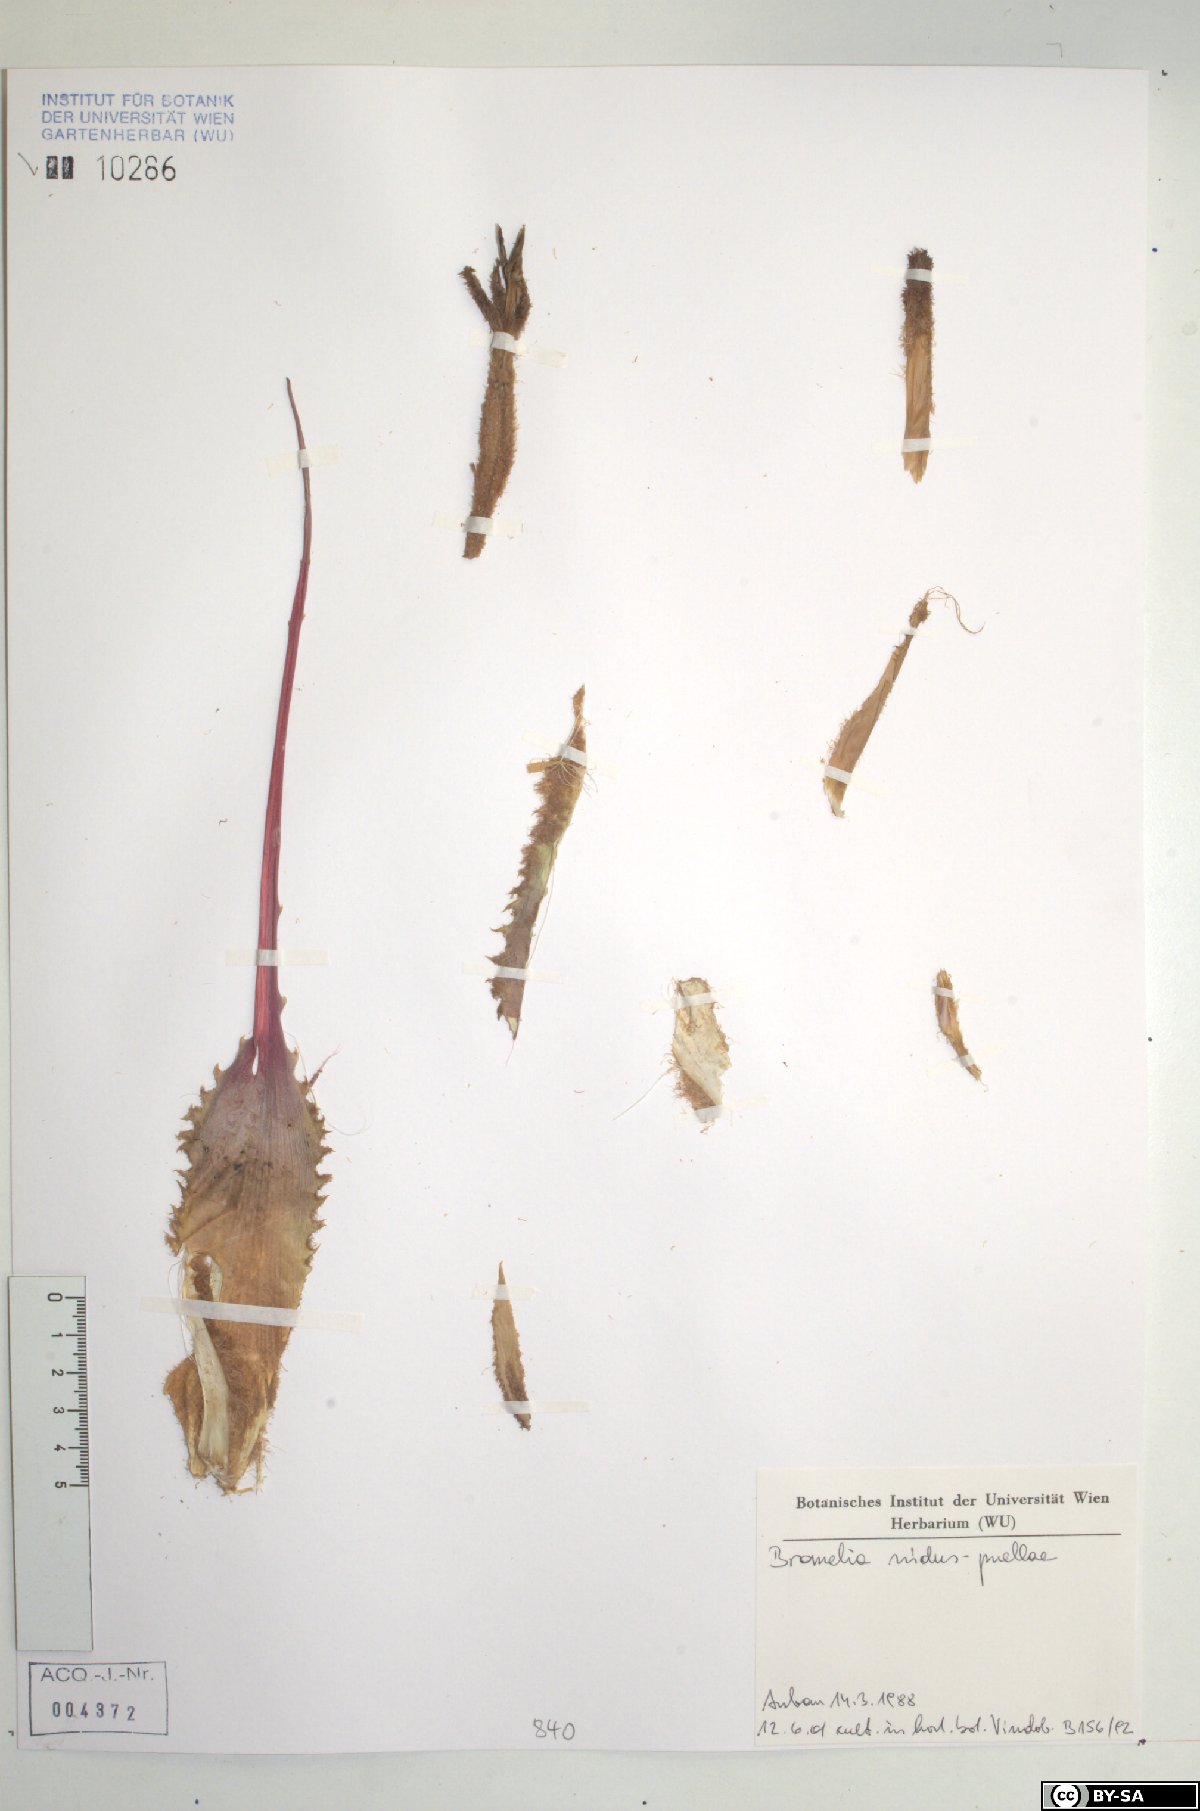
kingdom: Plantae
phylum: Tracheophyta
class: Liliopsida
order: Poales
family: Bromeliaceae
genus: Bromelia
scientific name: Bromelia nidus-puellae
